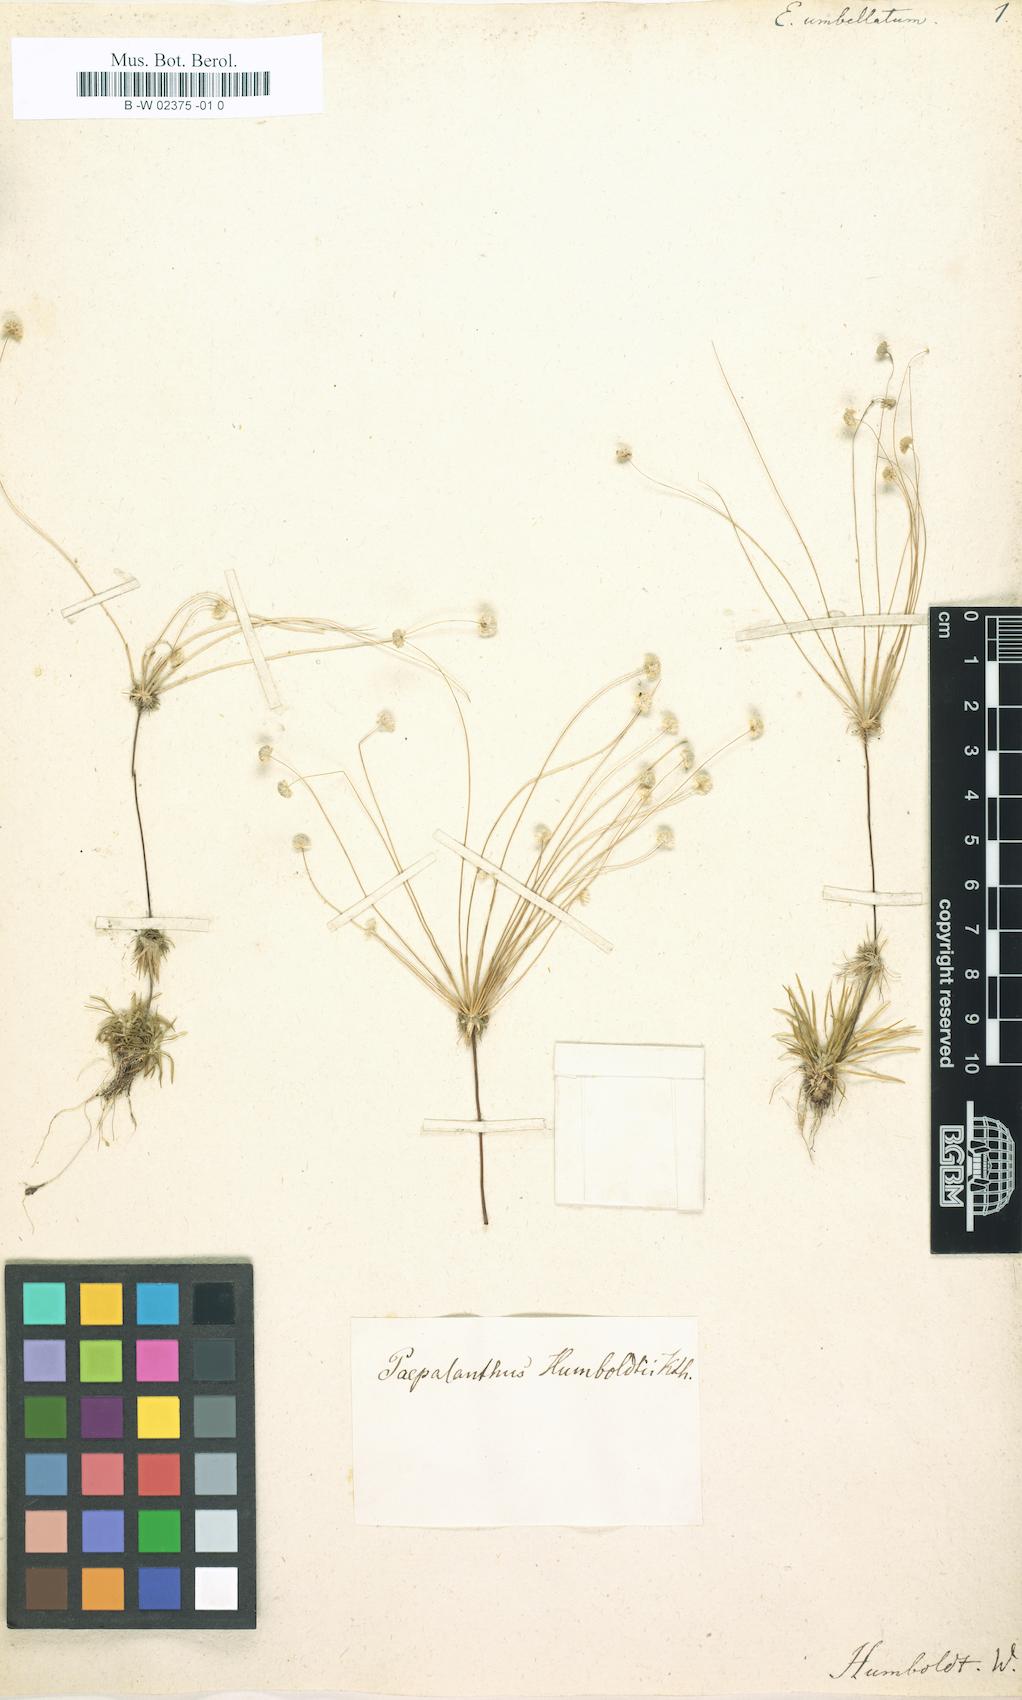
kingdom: Plantae
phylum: Tracheophyta
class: Liliopsida
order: Poales
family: Eriocaulaceae
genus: Syngonanthus
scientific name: Syngonanthus humboldtii
